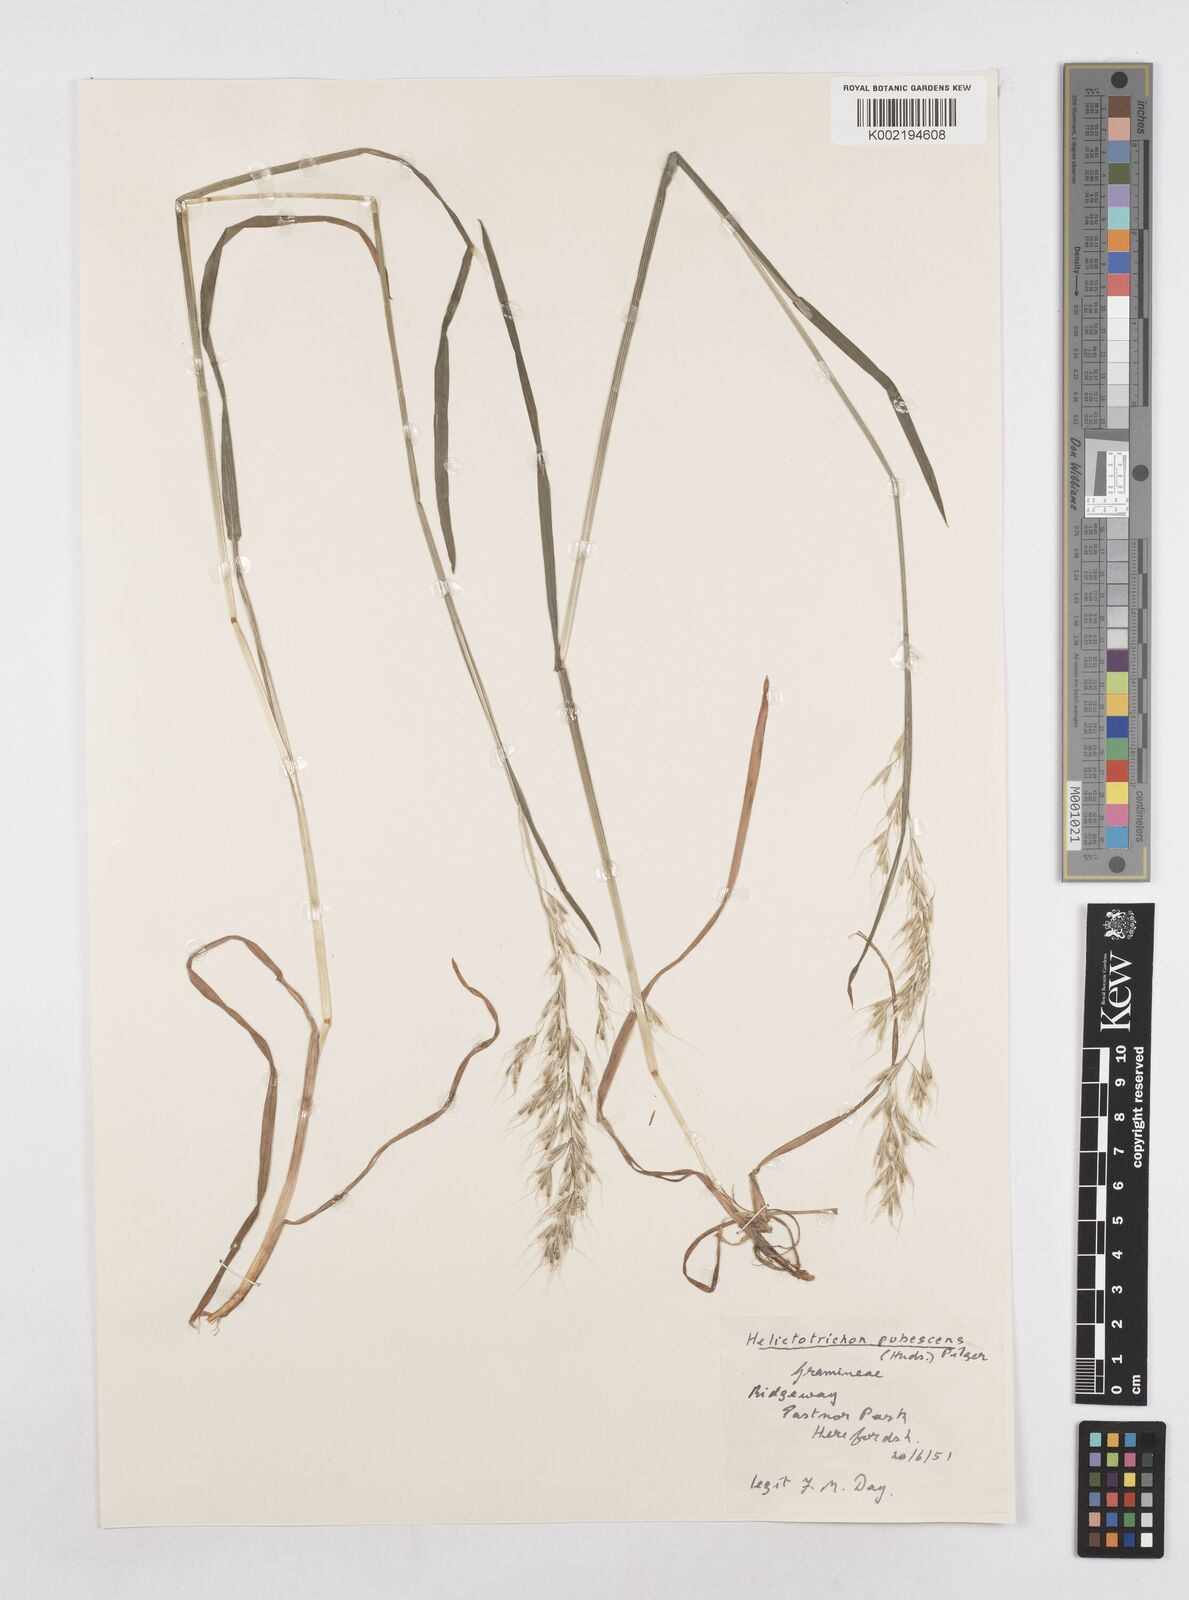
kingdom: Plantae
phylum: Tracheophyta
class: Liliopsida
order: Poales
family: Poaceae
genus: Avenula
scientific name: Avenula pubescens
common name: Downy alpine oatgrass
